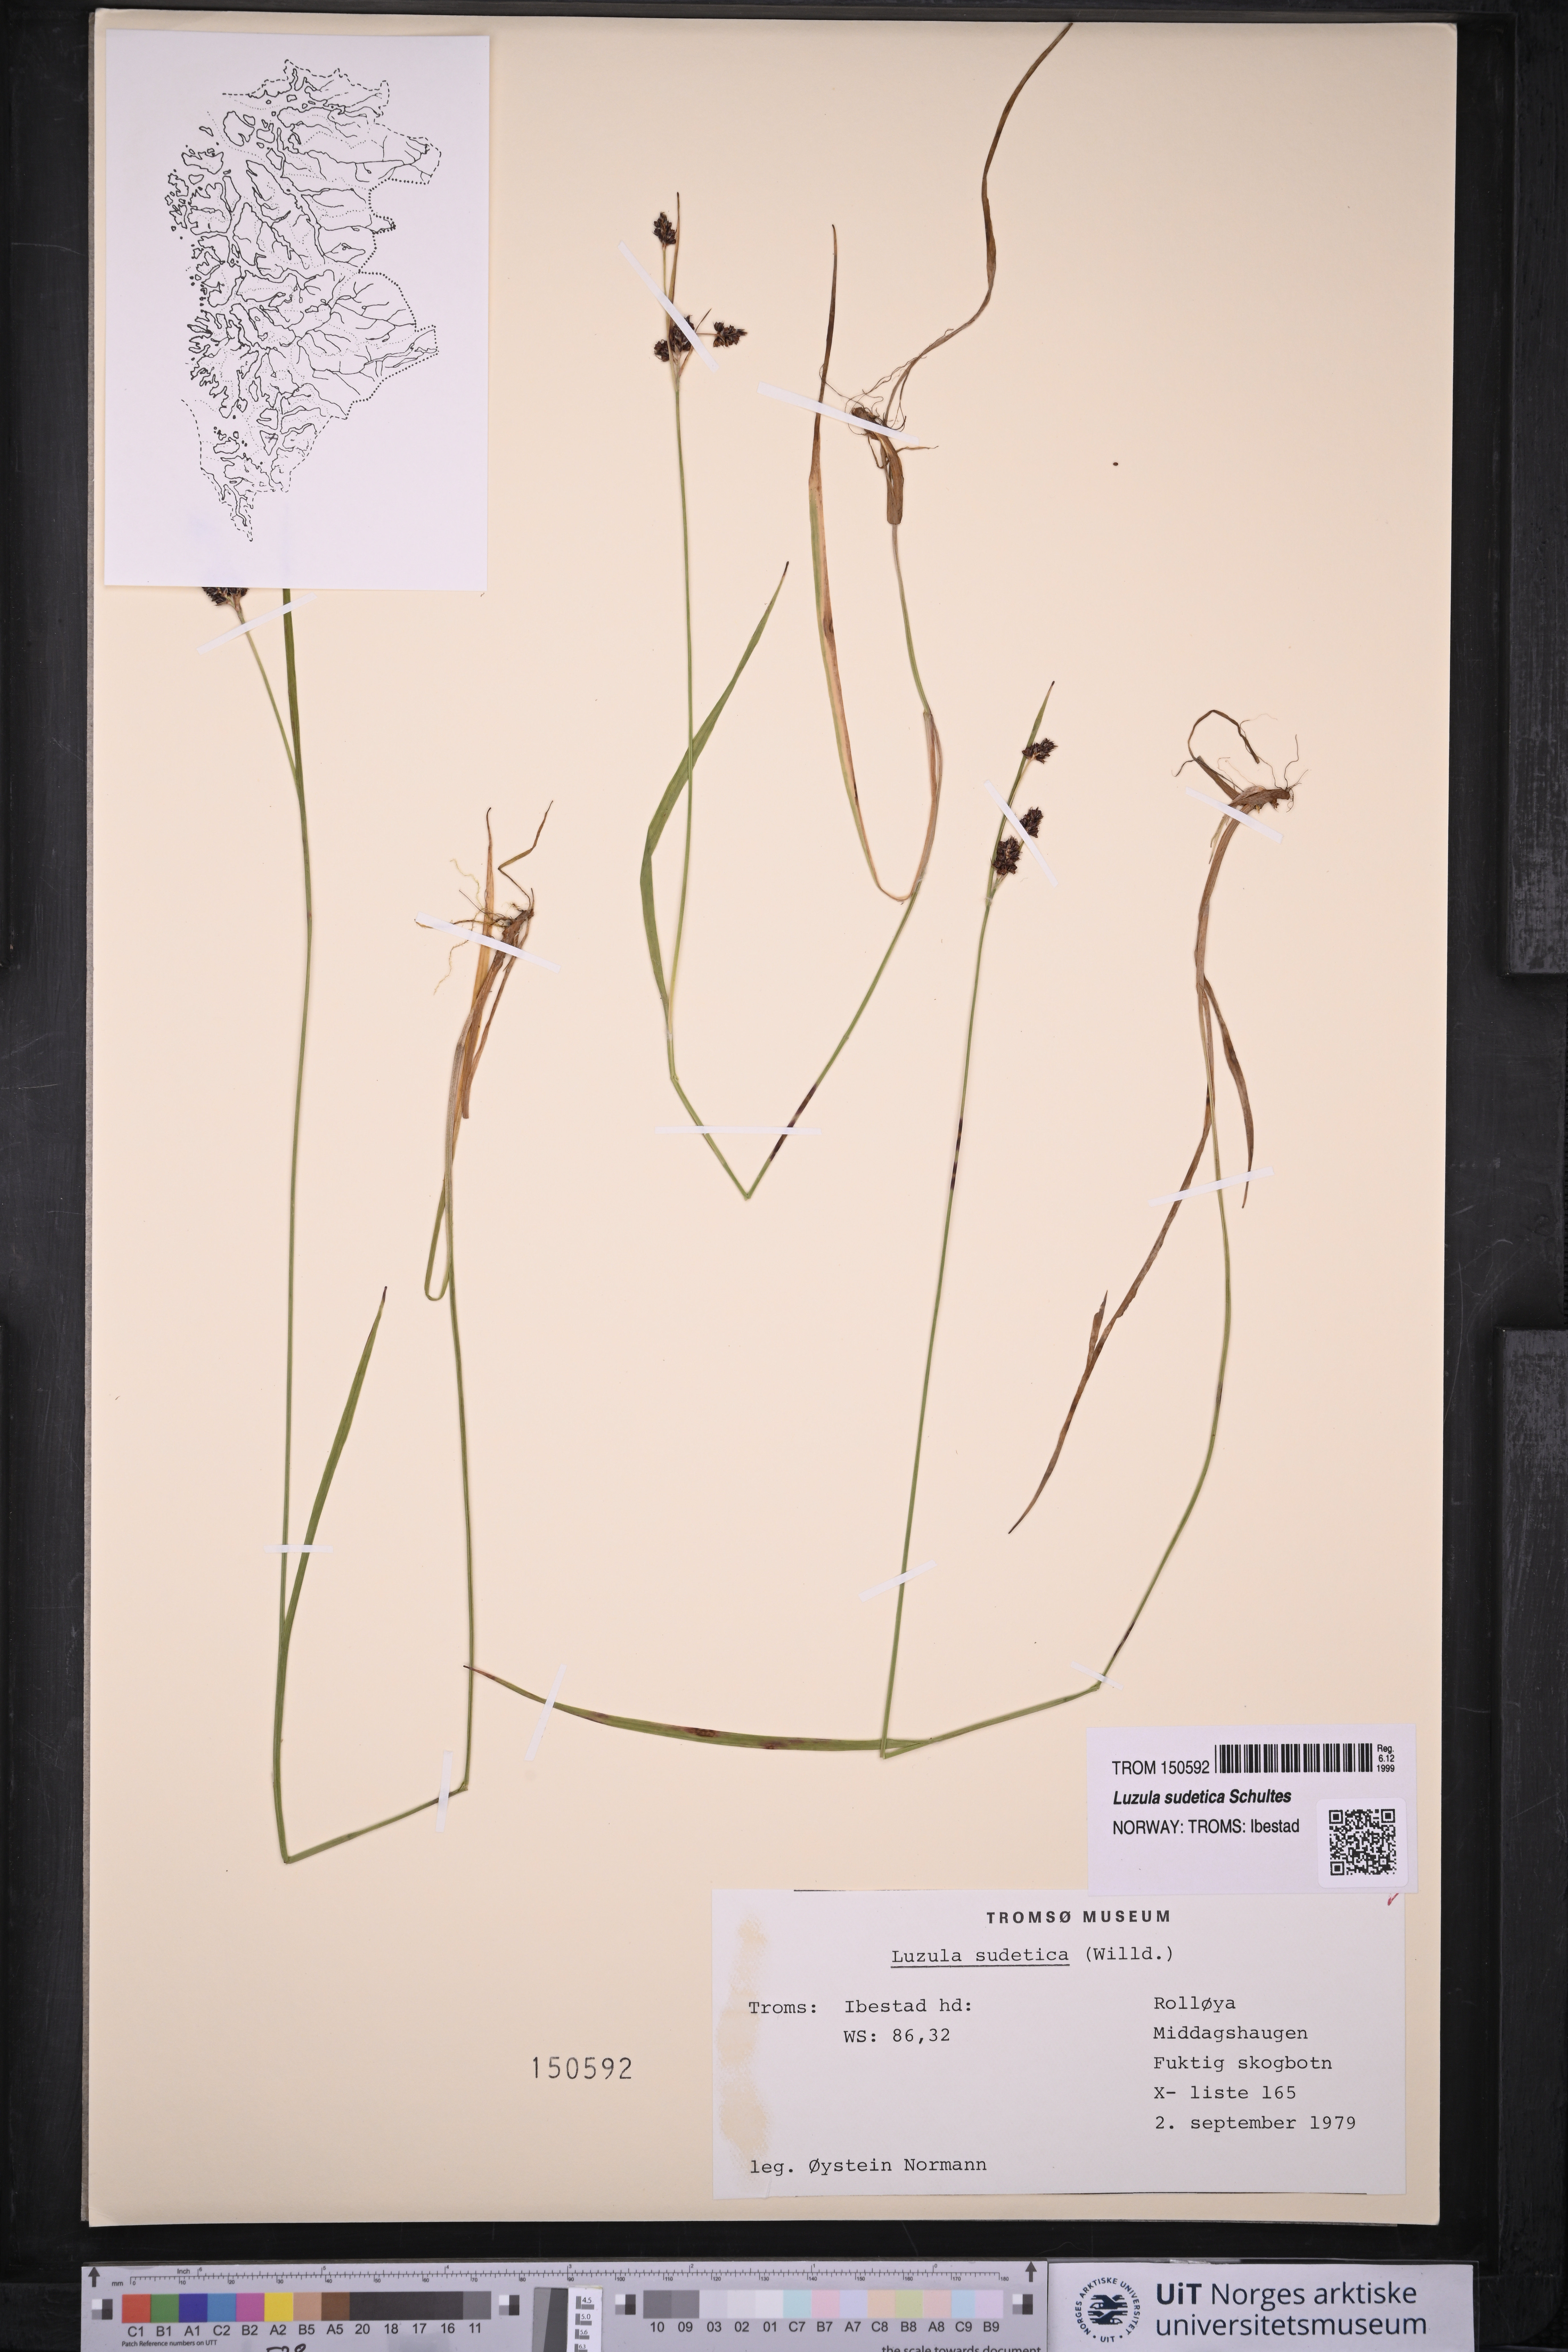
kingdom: Plantae
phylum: Tracheophyta
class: Liliopsida
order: Poales
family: Juncaceae
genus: Luzula
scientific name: Luzula sudetica
